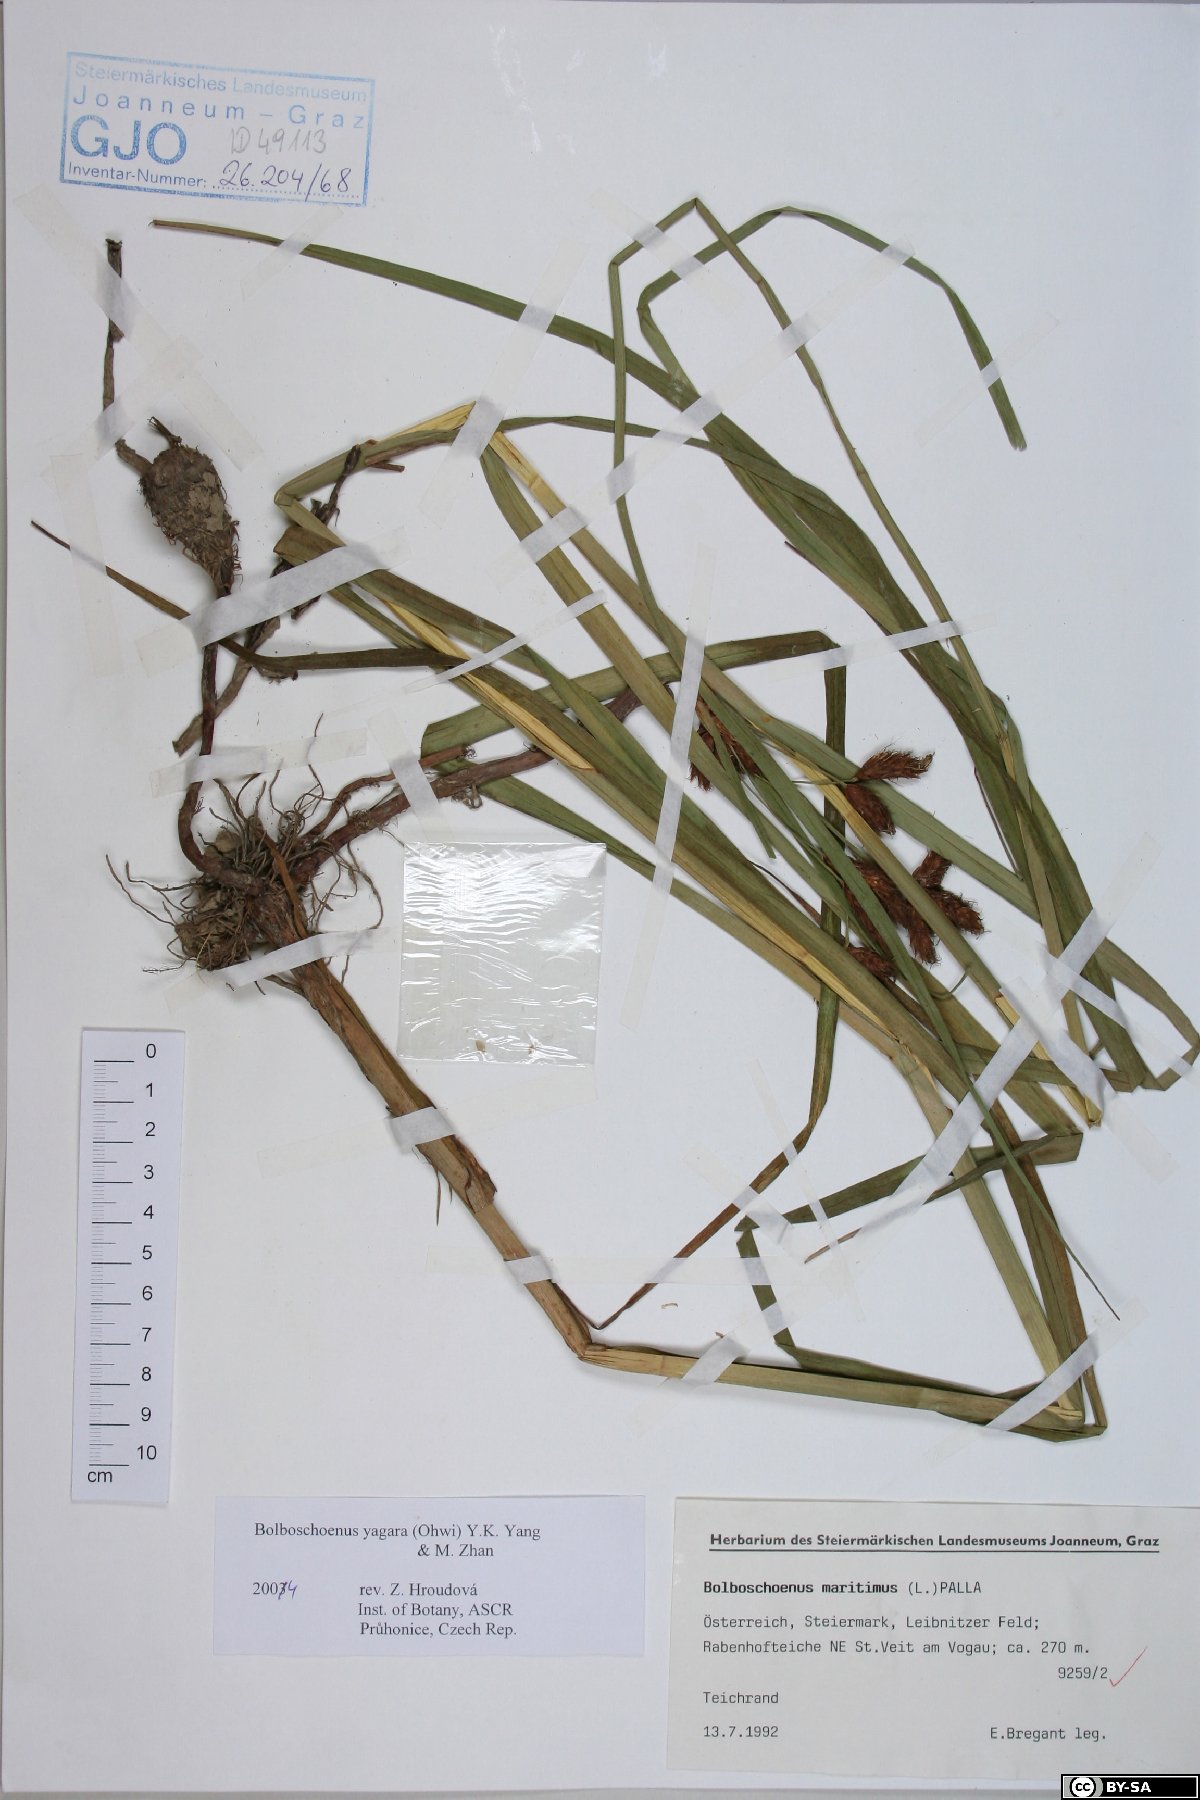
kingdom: Plantae
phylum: Tracheophyta
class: Liliopsida
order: Poales
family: Cyperaceae
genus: Bolboschoenus
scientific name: Bolboschoenus yagara
